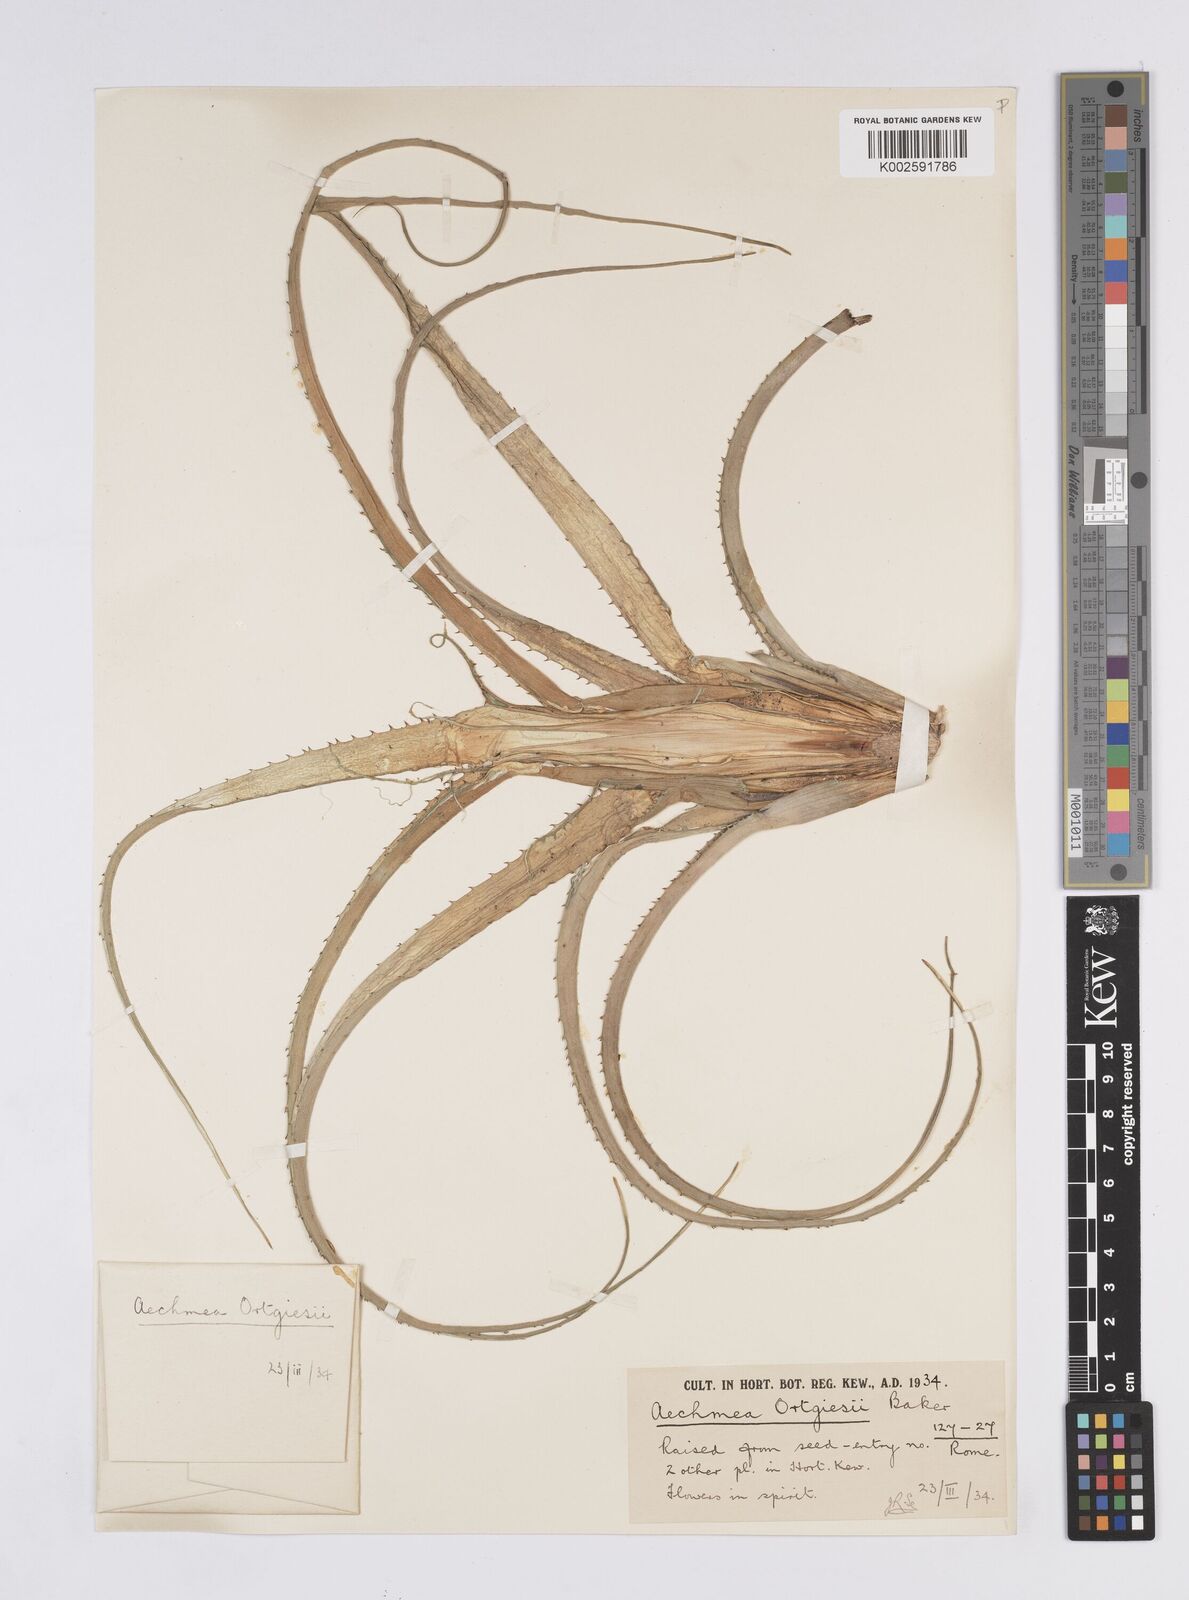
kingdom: Plantae
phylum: Tracheophyta
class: Liliopsida
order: Poales
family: Bromeliaceae
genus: Aechmea
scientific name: Aechmea recurvata
